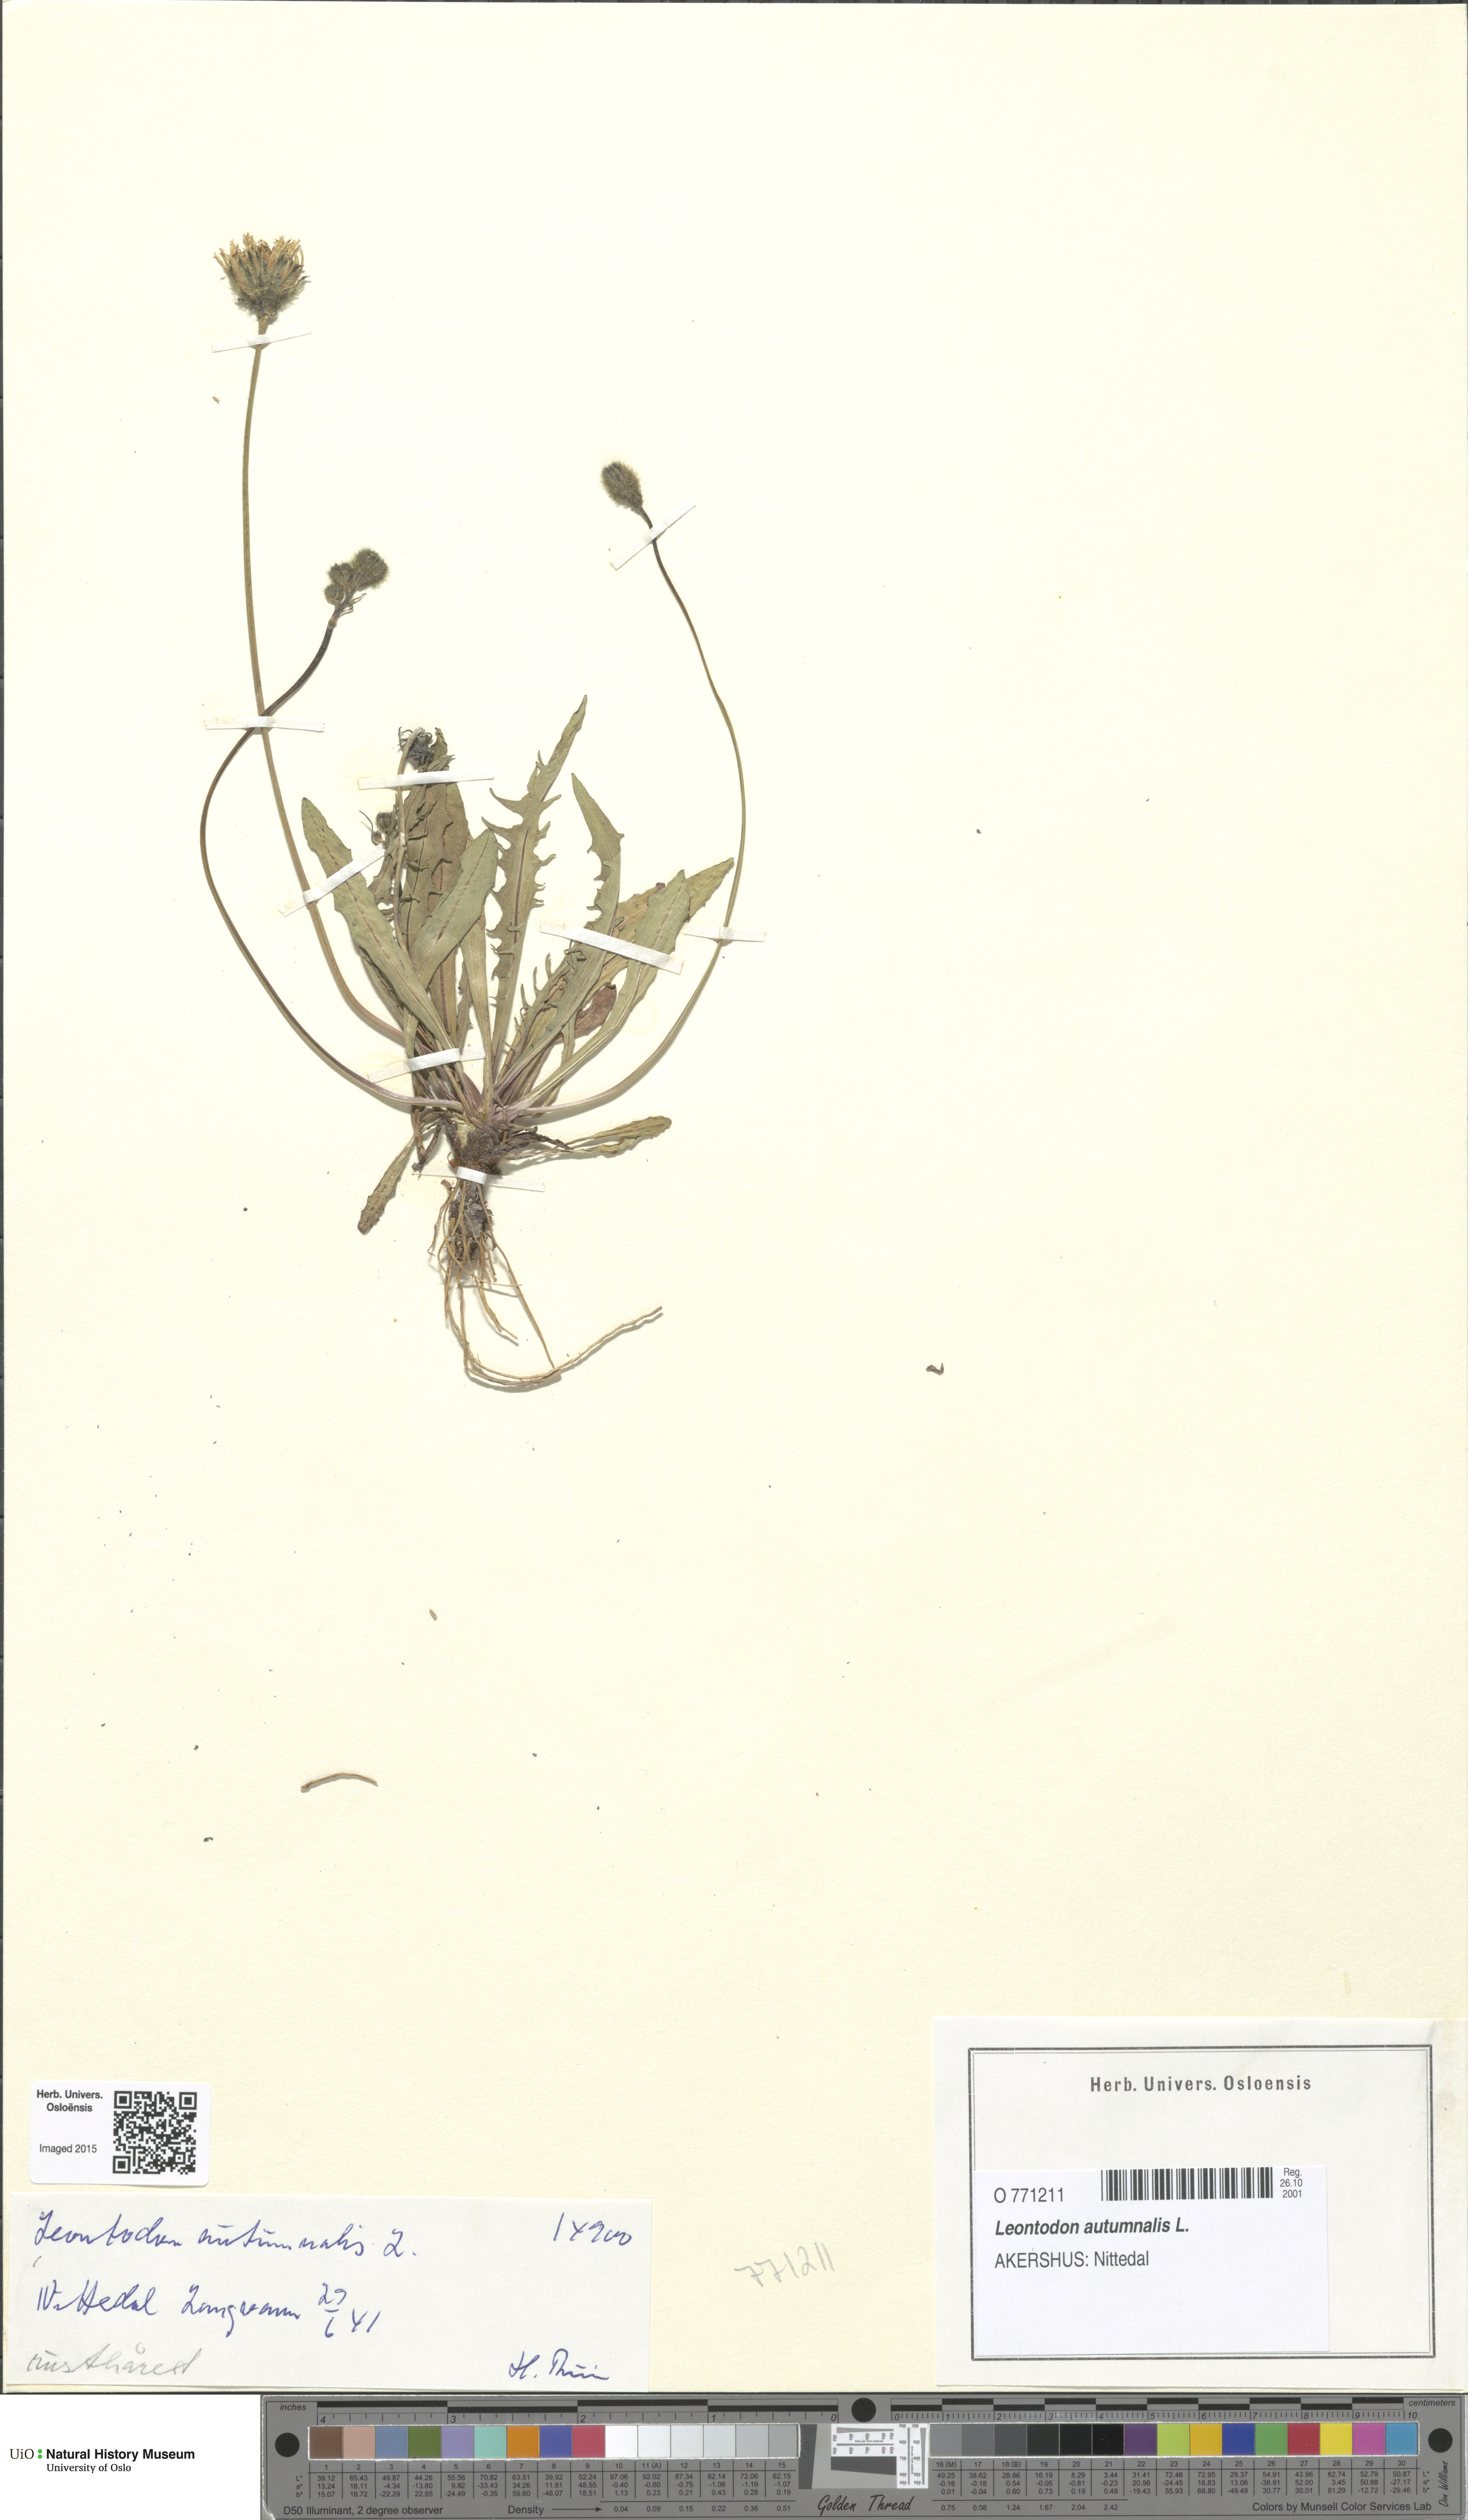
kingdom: Plantae
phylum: Tracheophyta
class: Magnoliopsida
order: Asterales
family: Asteraceae
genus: Scorzoneroides
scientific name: Scorzoneroides autumnalis
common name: Autumn hawkbit
